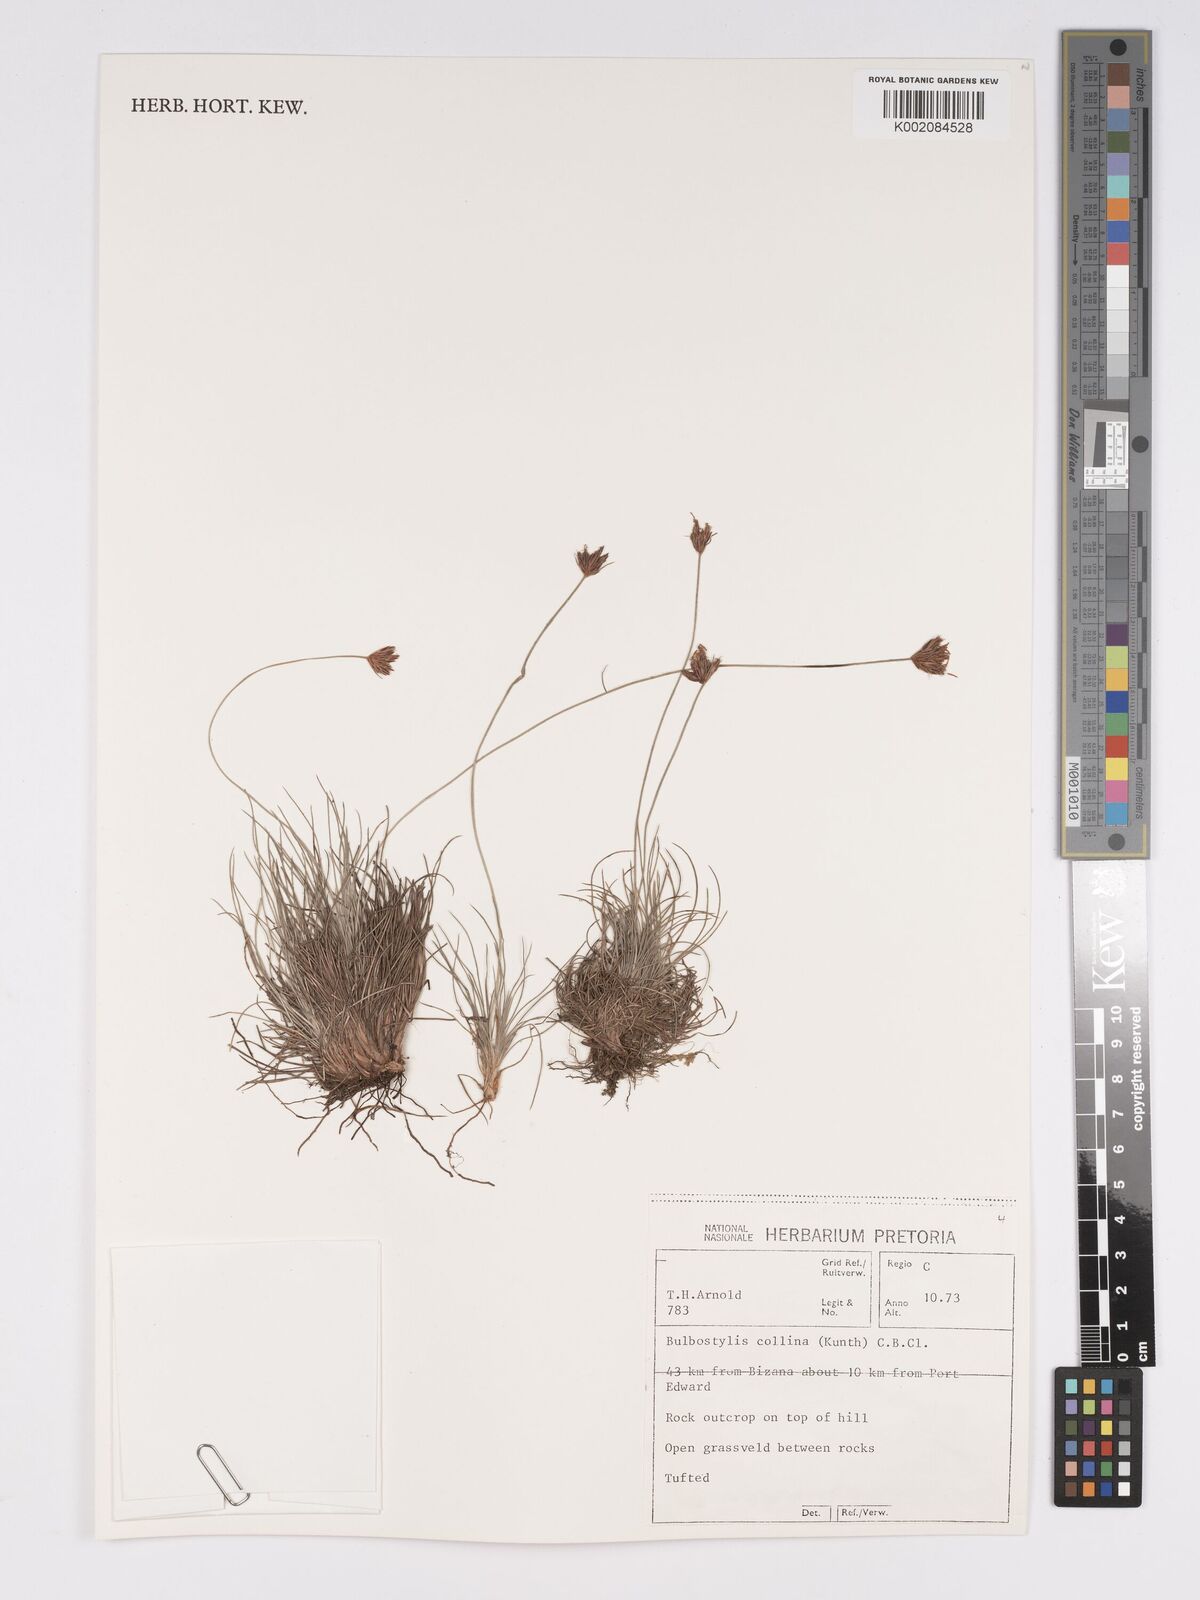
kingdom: Plantae
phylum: Tracheophyta
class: Liliopsida
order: Poales
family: Cyperaceae
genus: Bulbostylis
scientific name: Bulbostylis contexta
